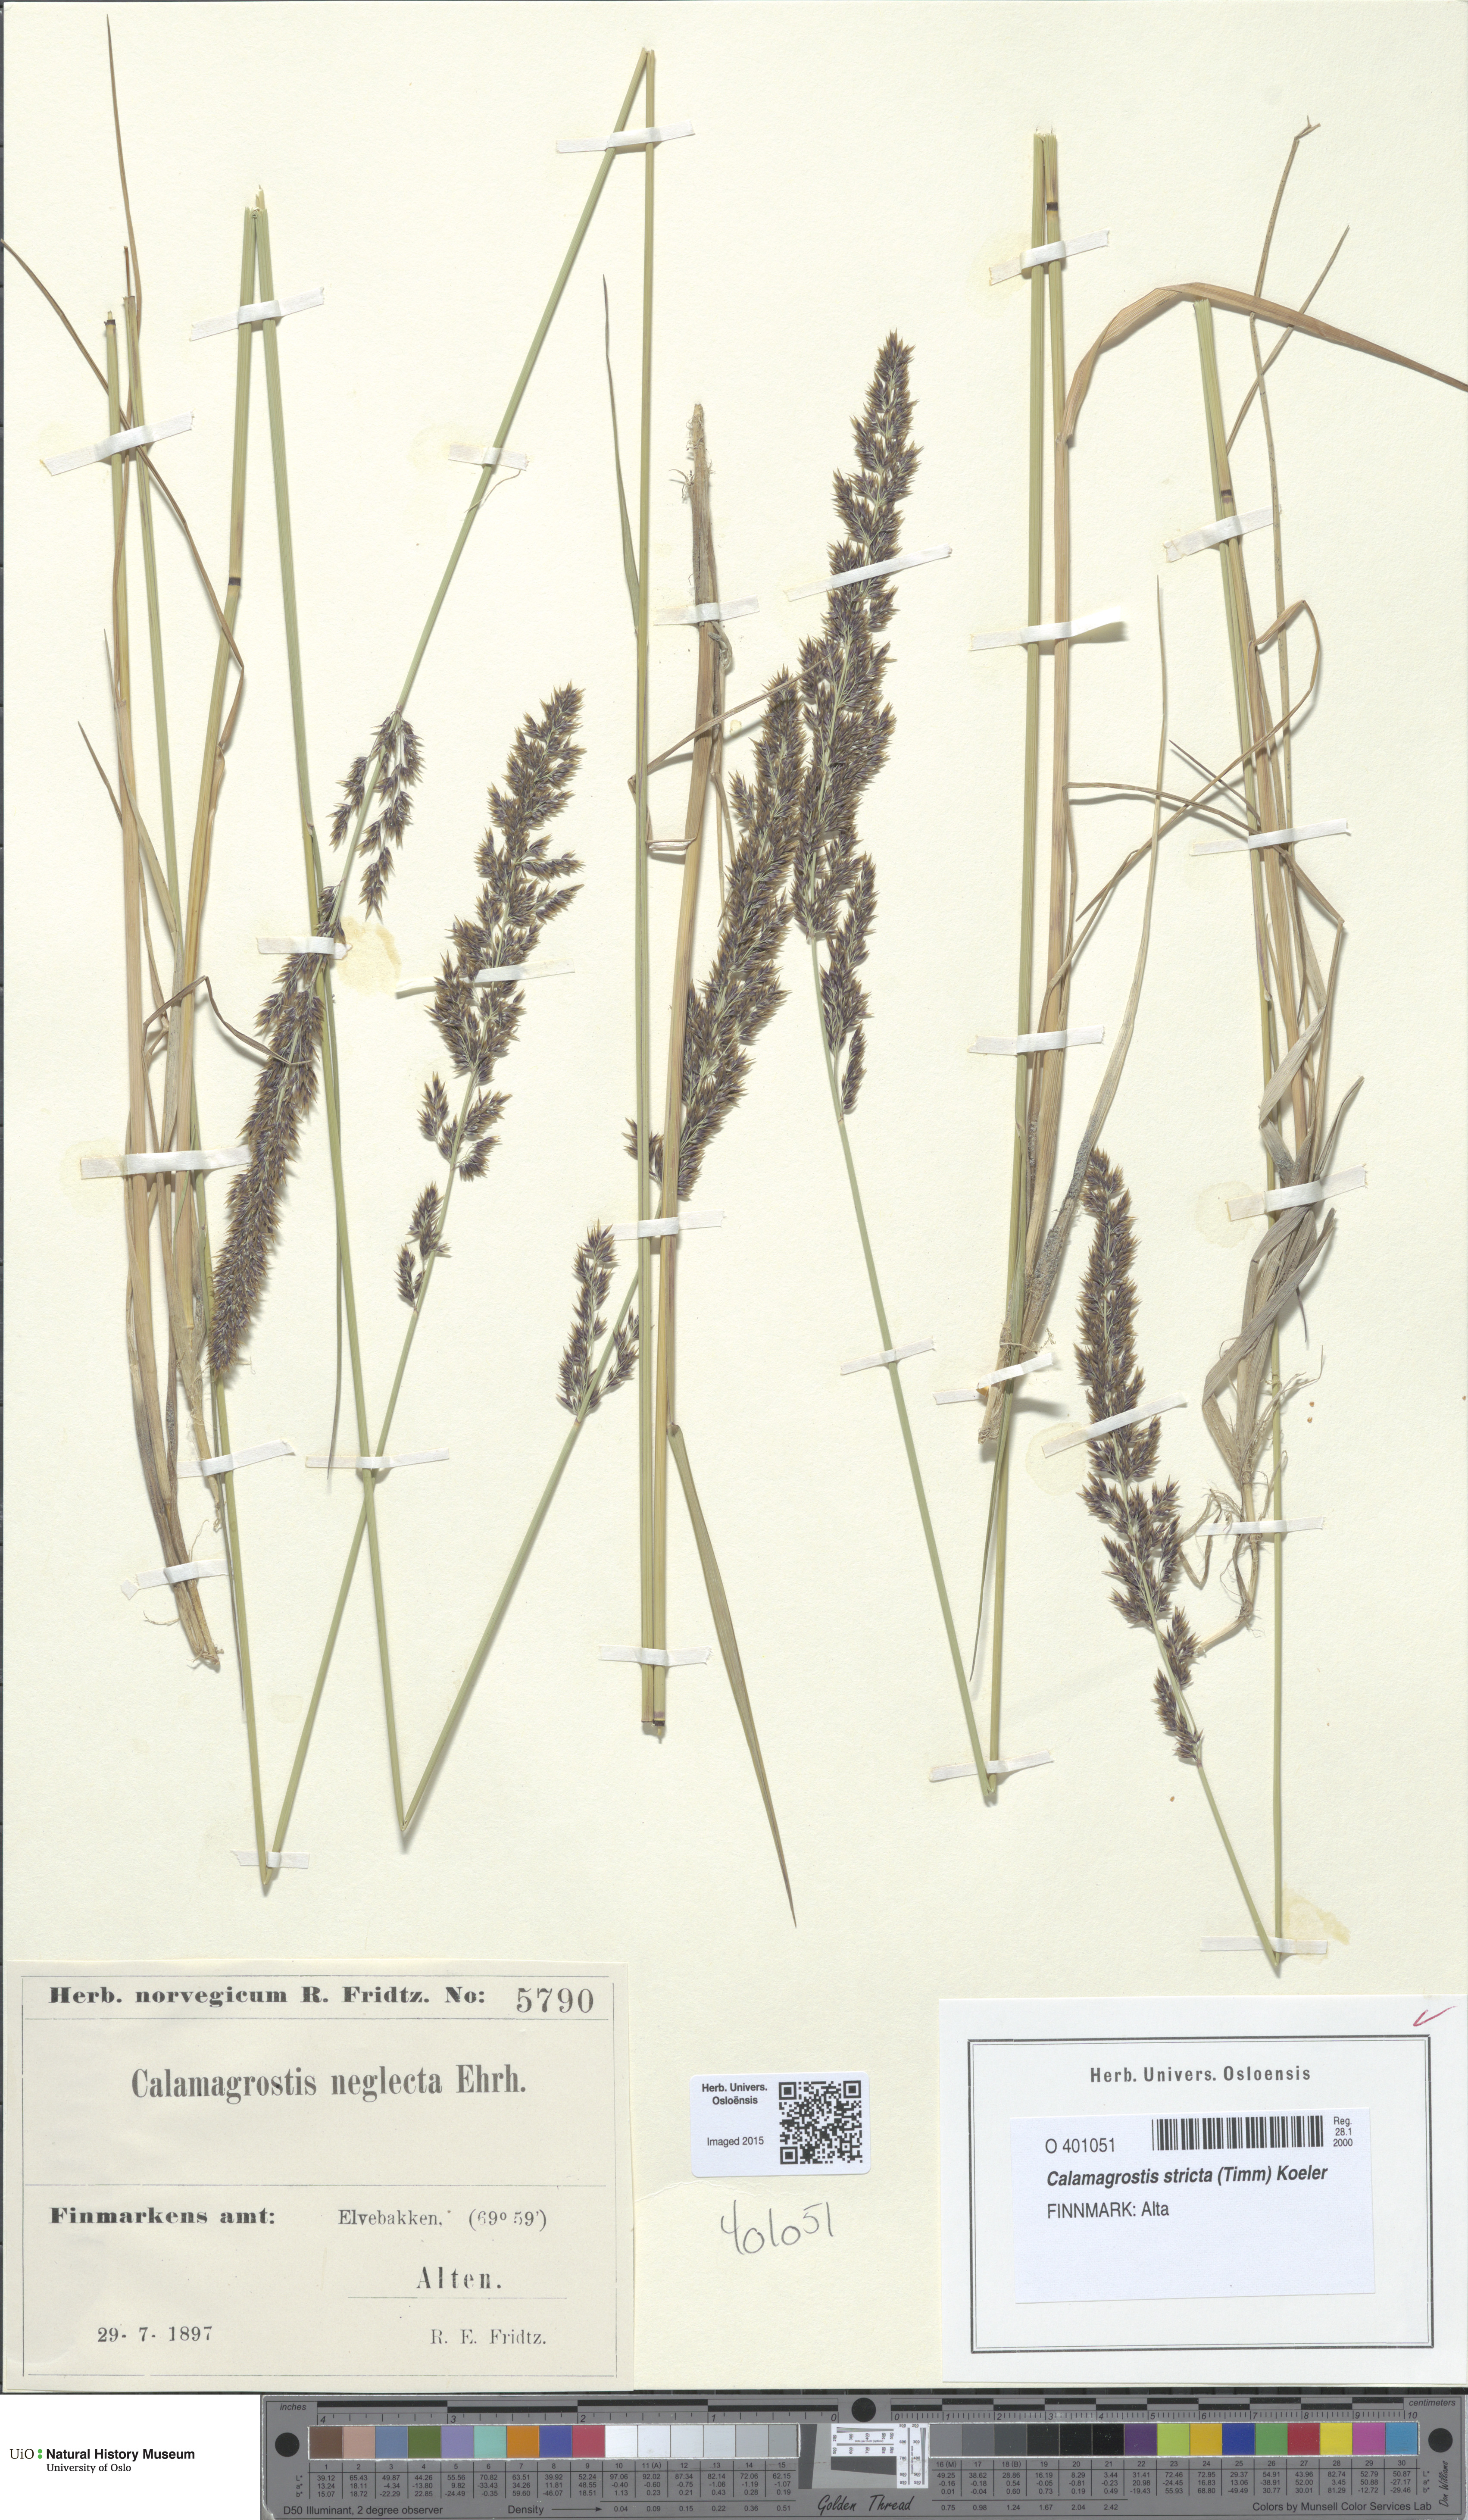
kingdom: Plantae
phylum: Tracheophyta
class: Liliopsida
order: Poales
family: Poaceae
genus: Achnatherum
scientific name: Achnatherum calamagrostis
